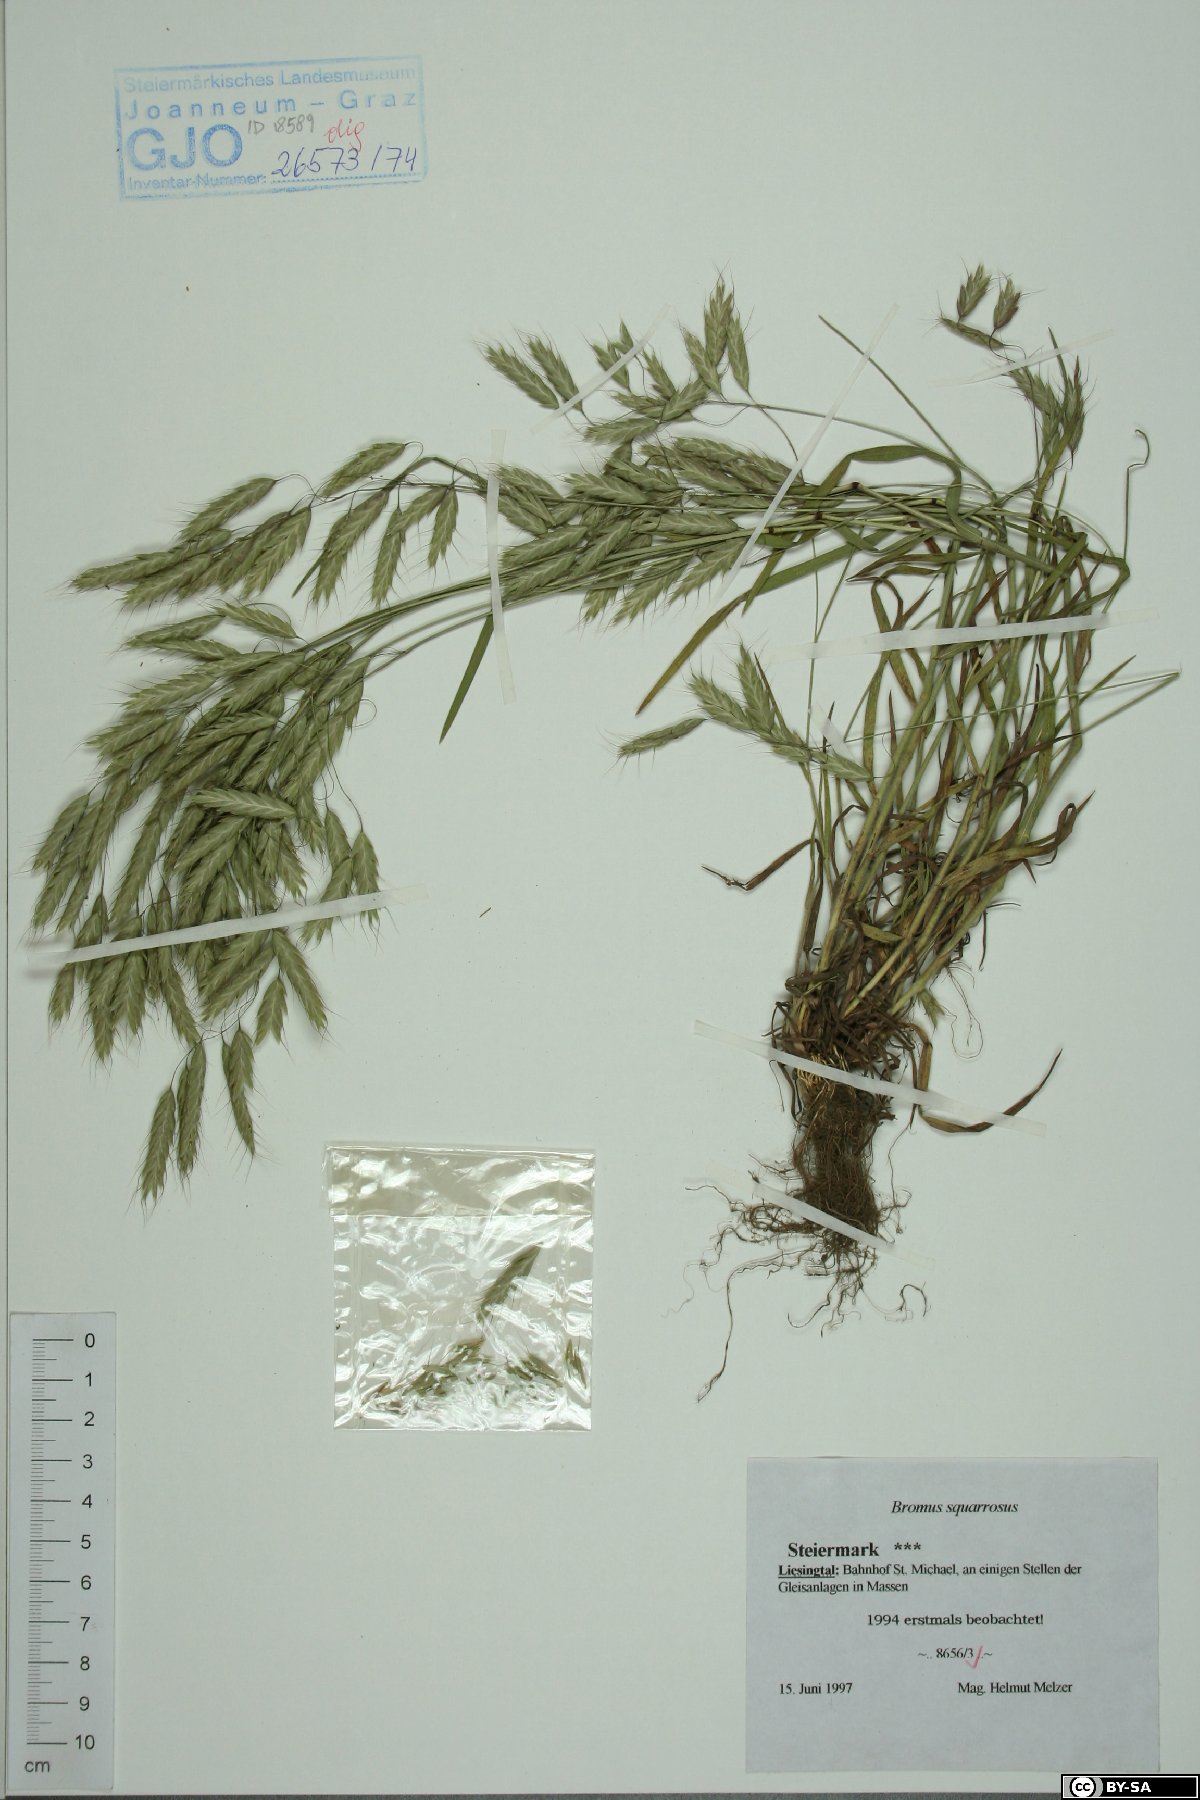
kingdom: Plantae
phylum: Tracheophyta
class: Liliopsida
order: Poales
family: Poaceae
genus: Bromus
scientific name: Bromus squarrosus
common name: Corn brome
